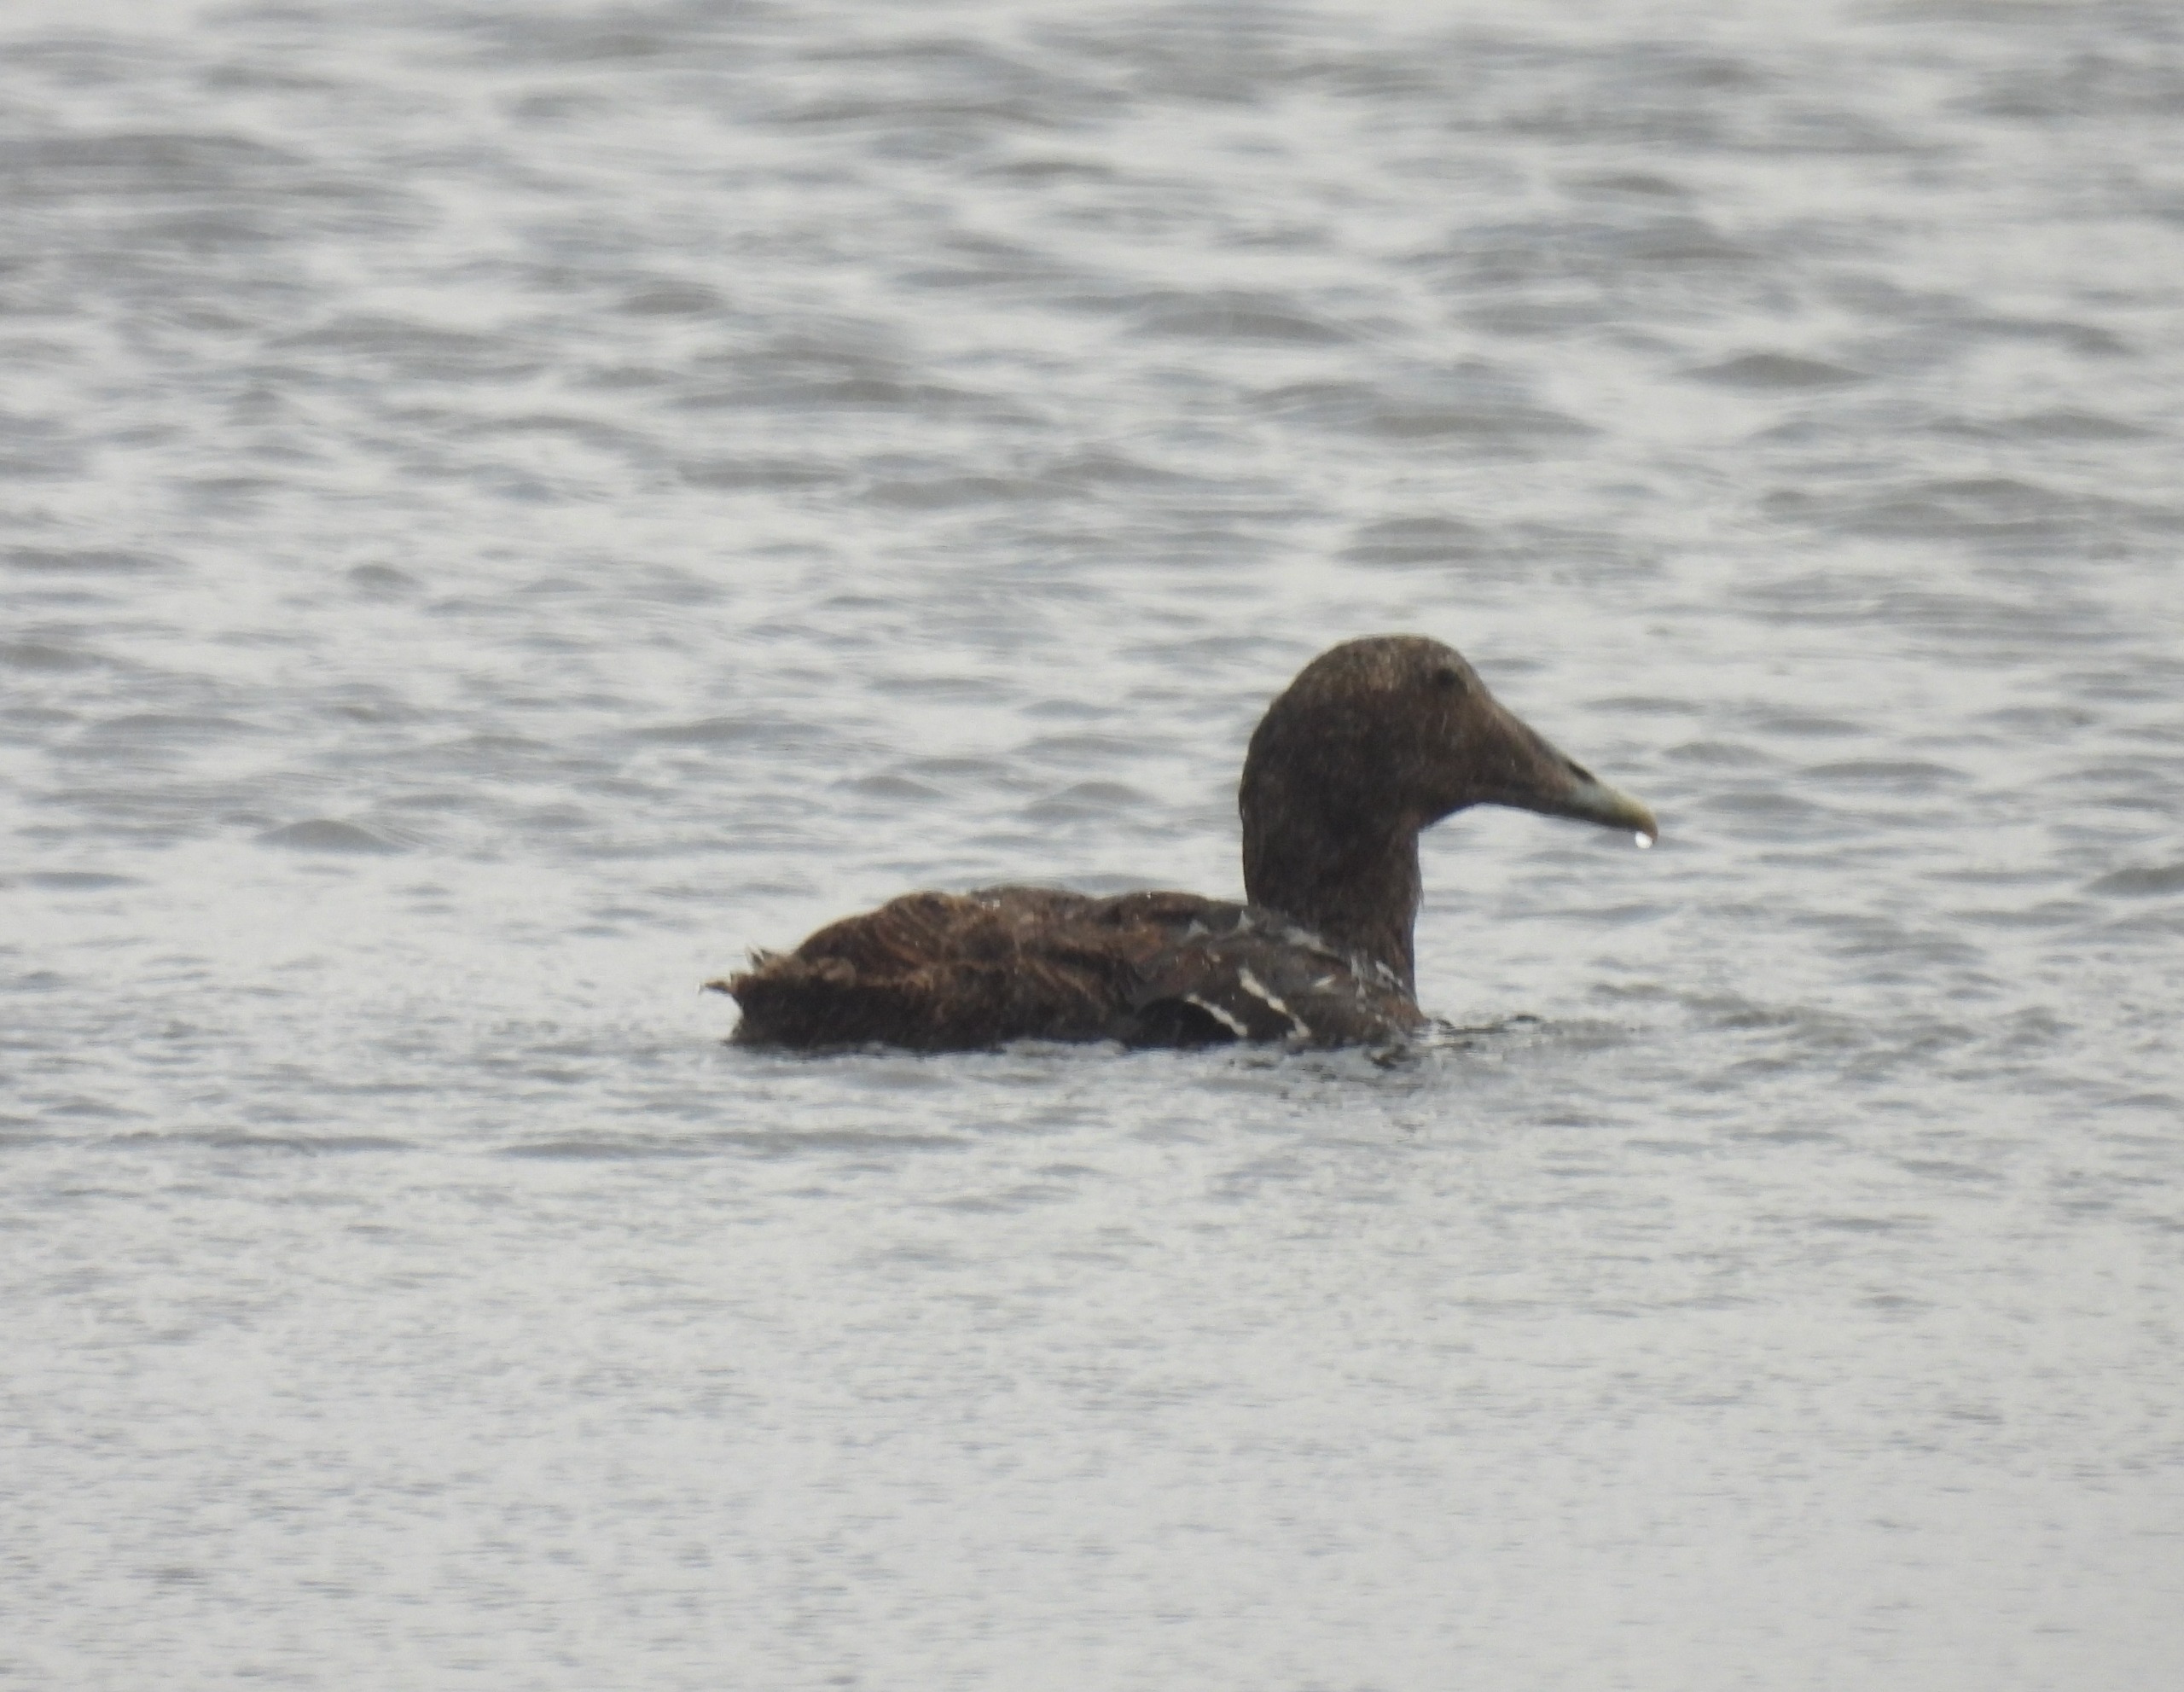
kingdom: Animalia
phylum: Chordata
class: Aves
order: Anseriformes
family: Anatidae
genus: Somateria
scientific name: Somateria mollissima
